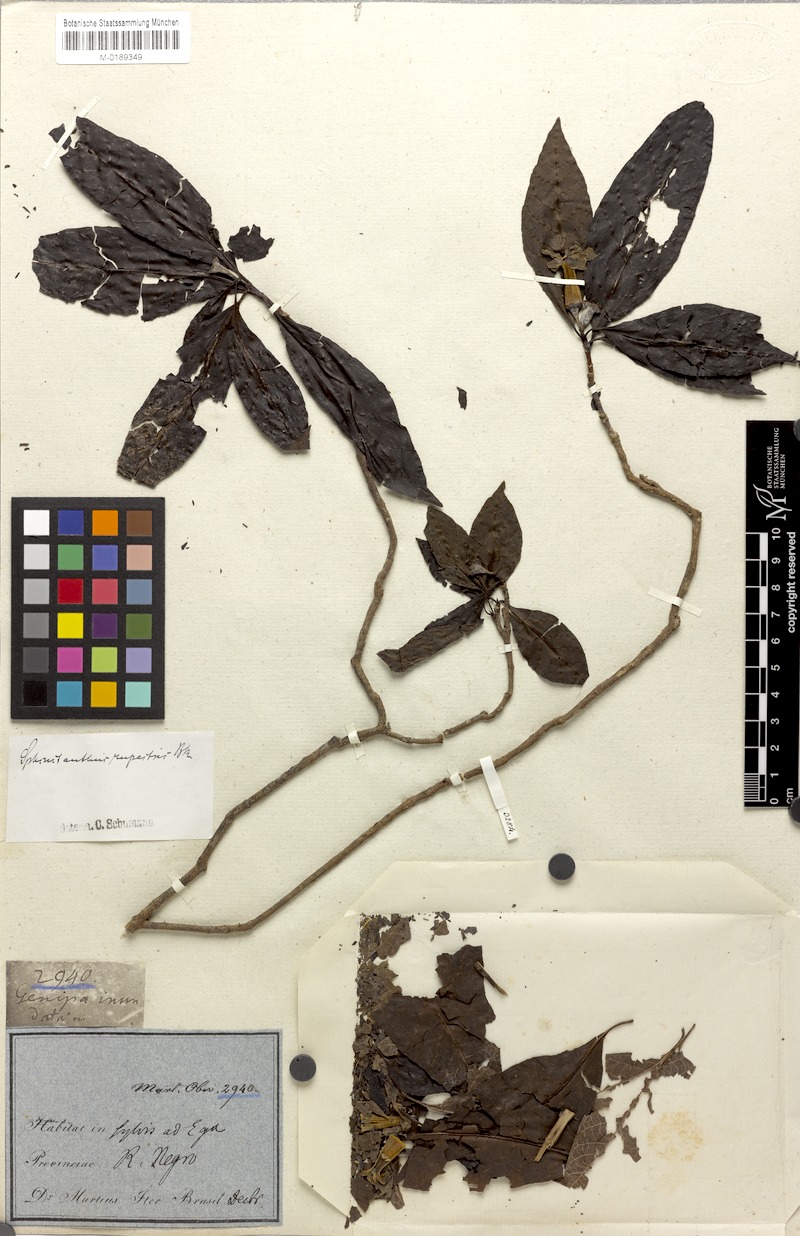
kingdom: Plantae
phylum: Tracheophyta
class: Magnoliopsida
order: Gentianales
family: Rubiaceae
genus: Sphinctanthus
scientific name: Sphinctanthus striiflorus
